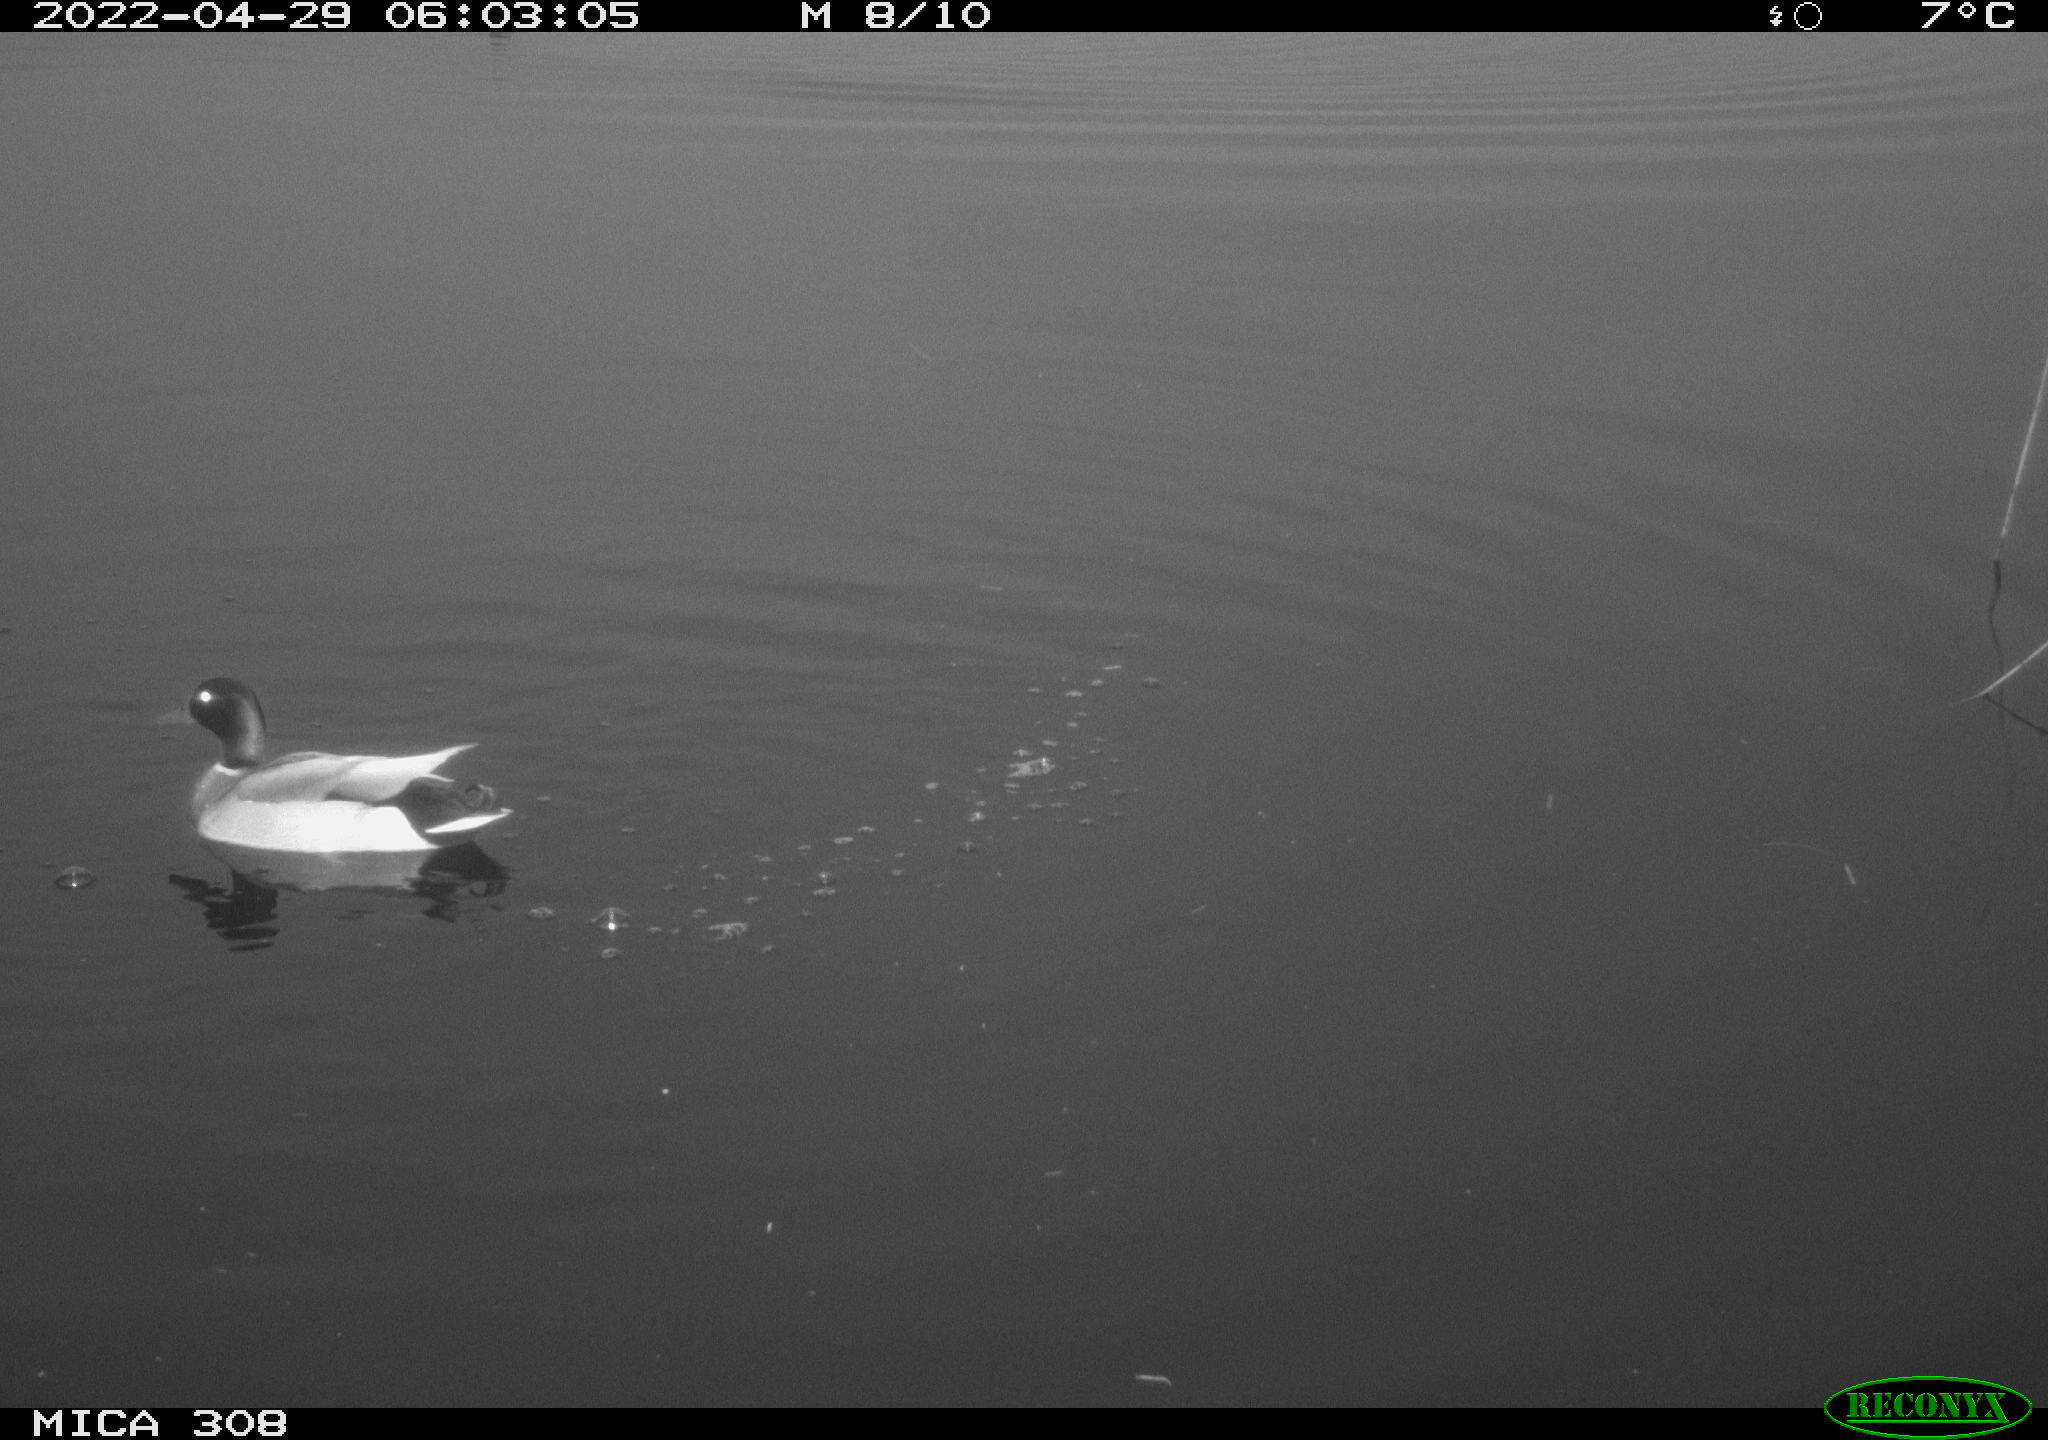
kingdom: Animalia
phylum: Chordata
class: Aves
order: Anseriformes
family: Anatidae
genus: Anas
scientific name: Anas platyrhynchos
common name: Mallard
